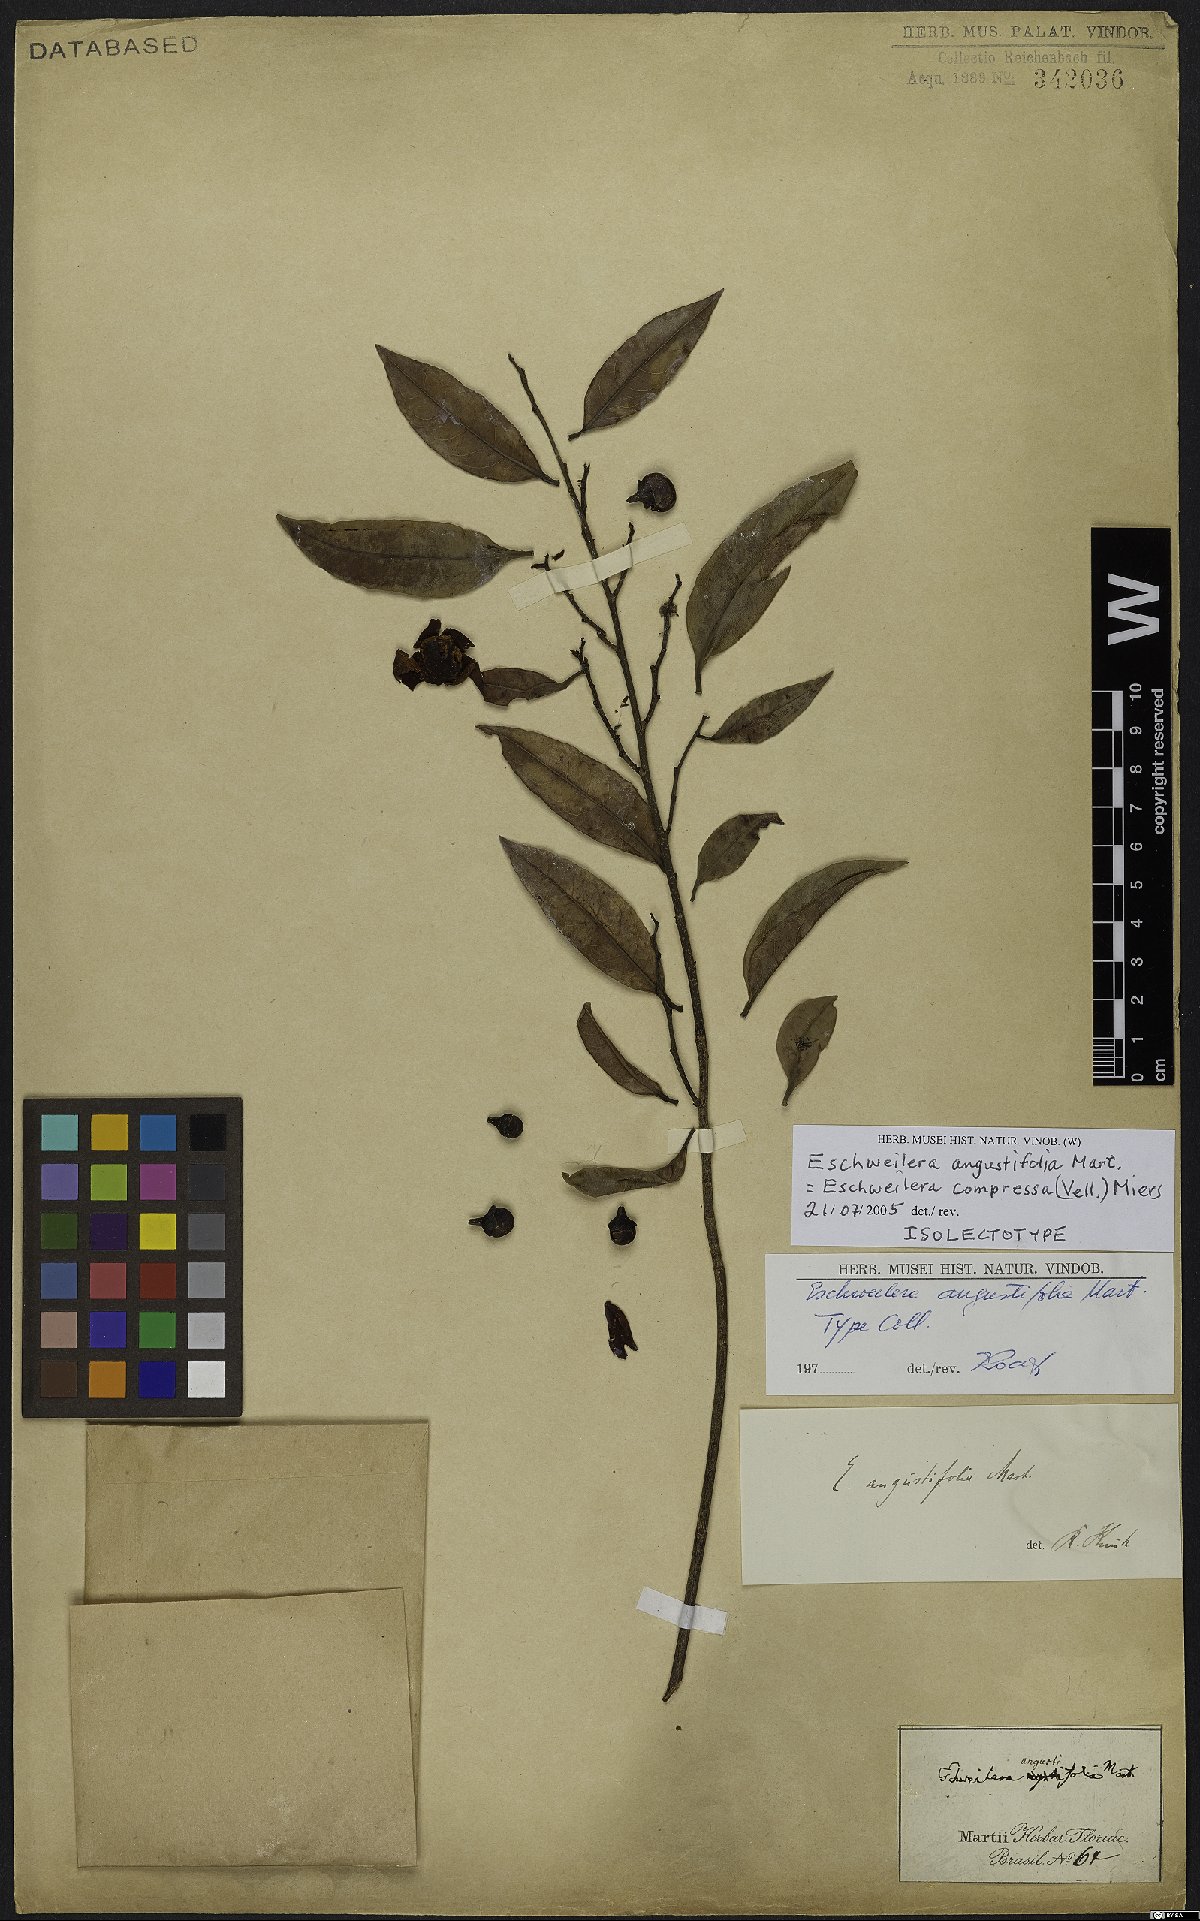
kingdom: Plantae
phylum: Tracheophyta
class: Magnoliopsida
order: Ericales
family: Lecythidaceae
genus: Eschweilera
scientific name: Eschweilera compressa
